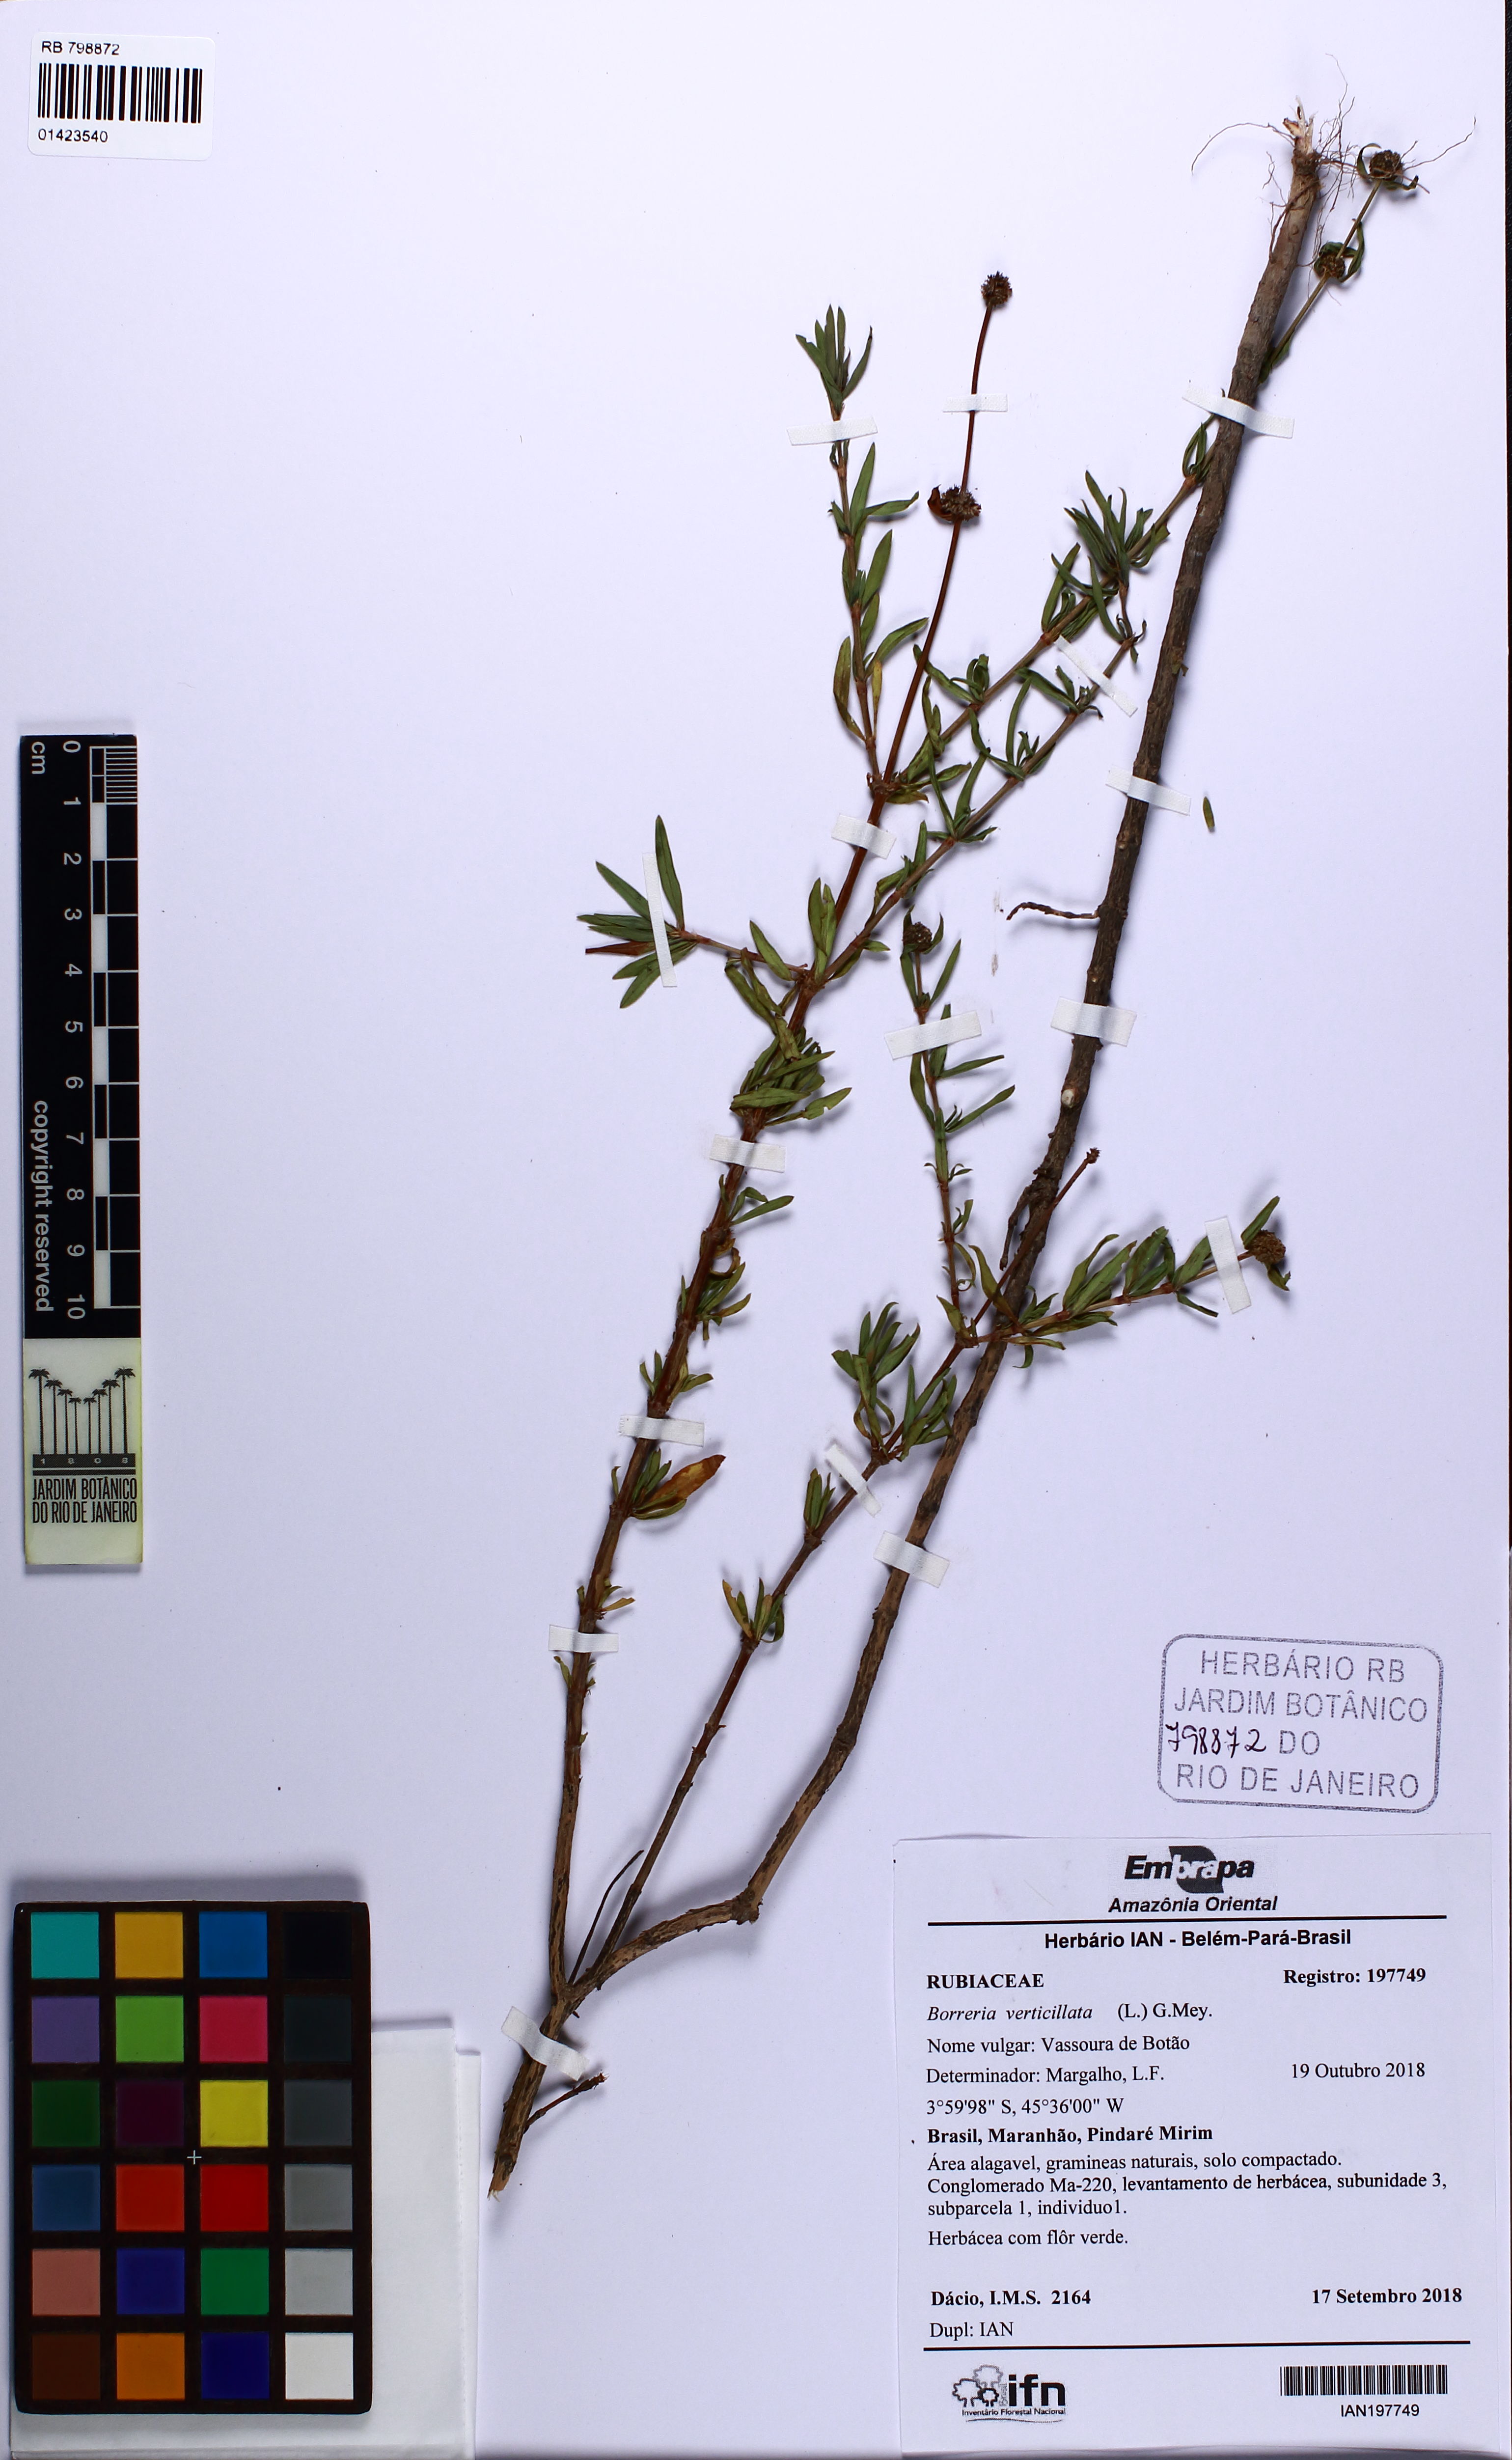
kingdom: Plantae
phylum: Tracheophyta
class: Magnoliopsida
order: Gentianales
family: Rubiaceae
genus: Spermacoce
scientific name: Spermacoce verticillata
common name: Shrubby false buttonweed
